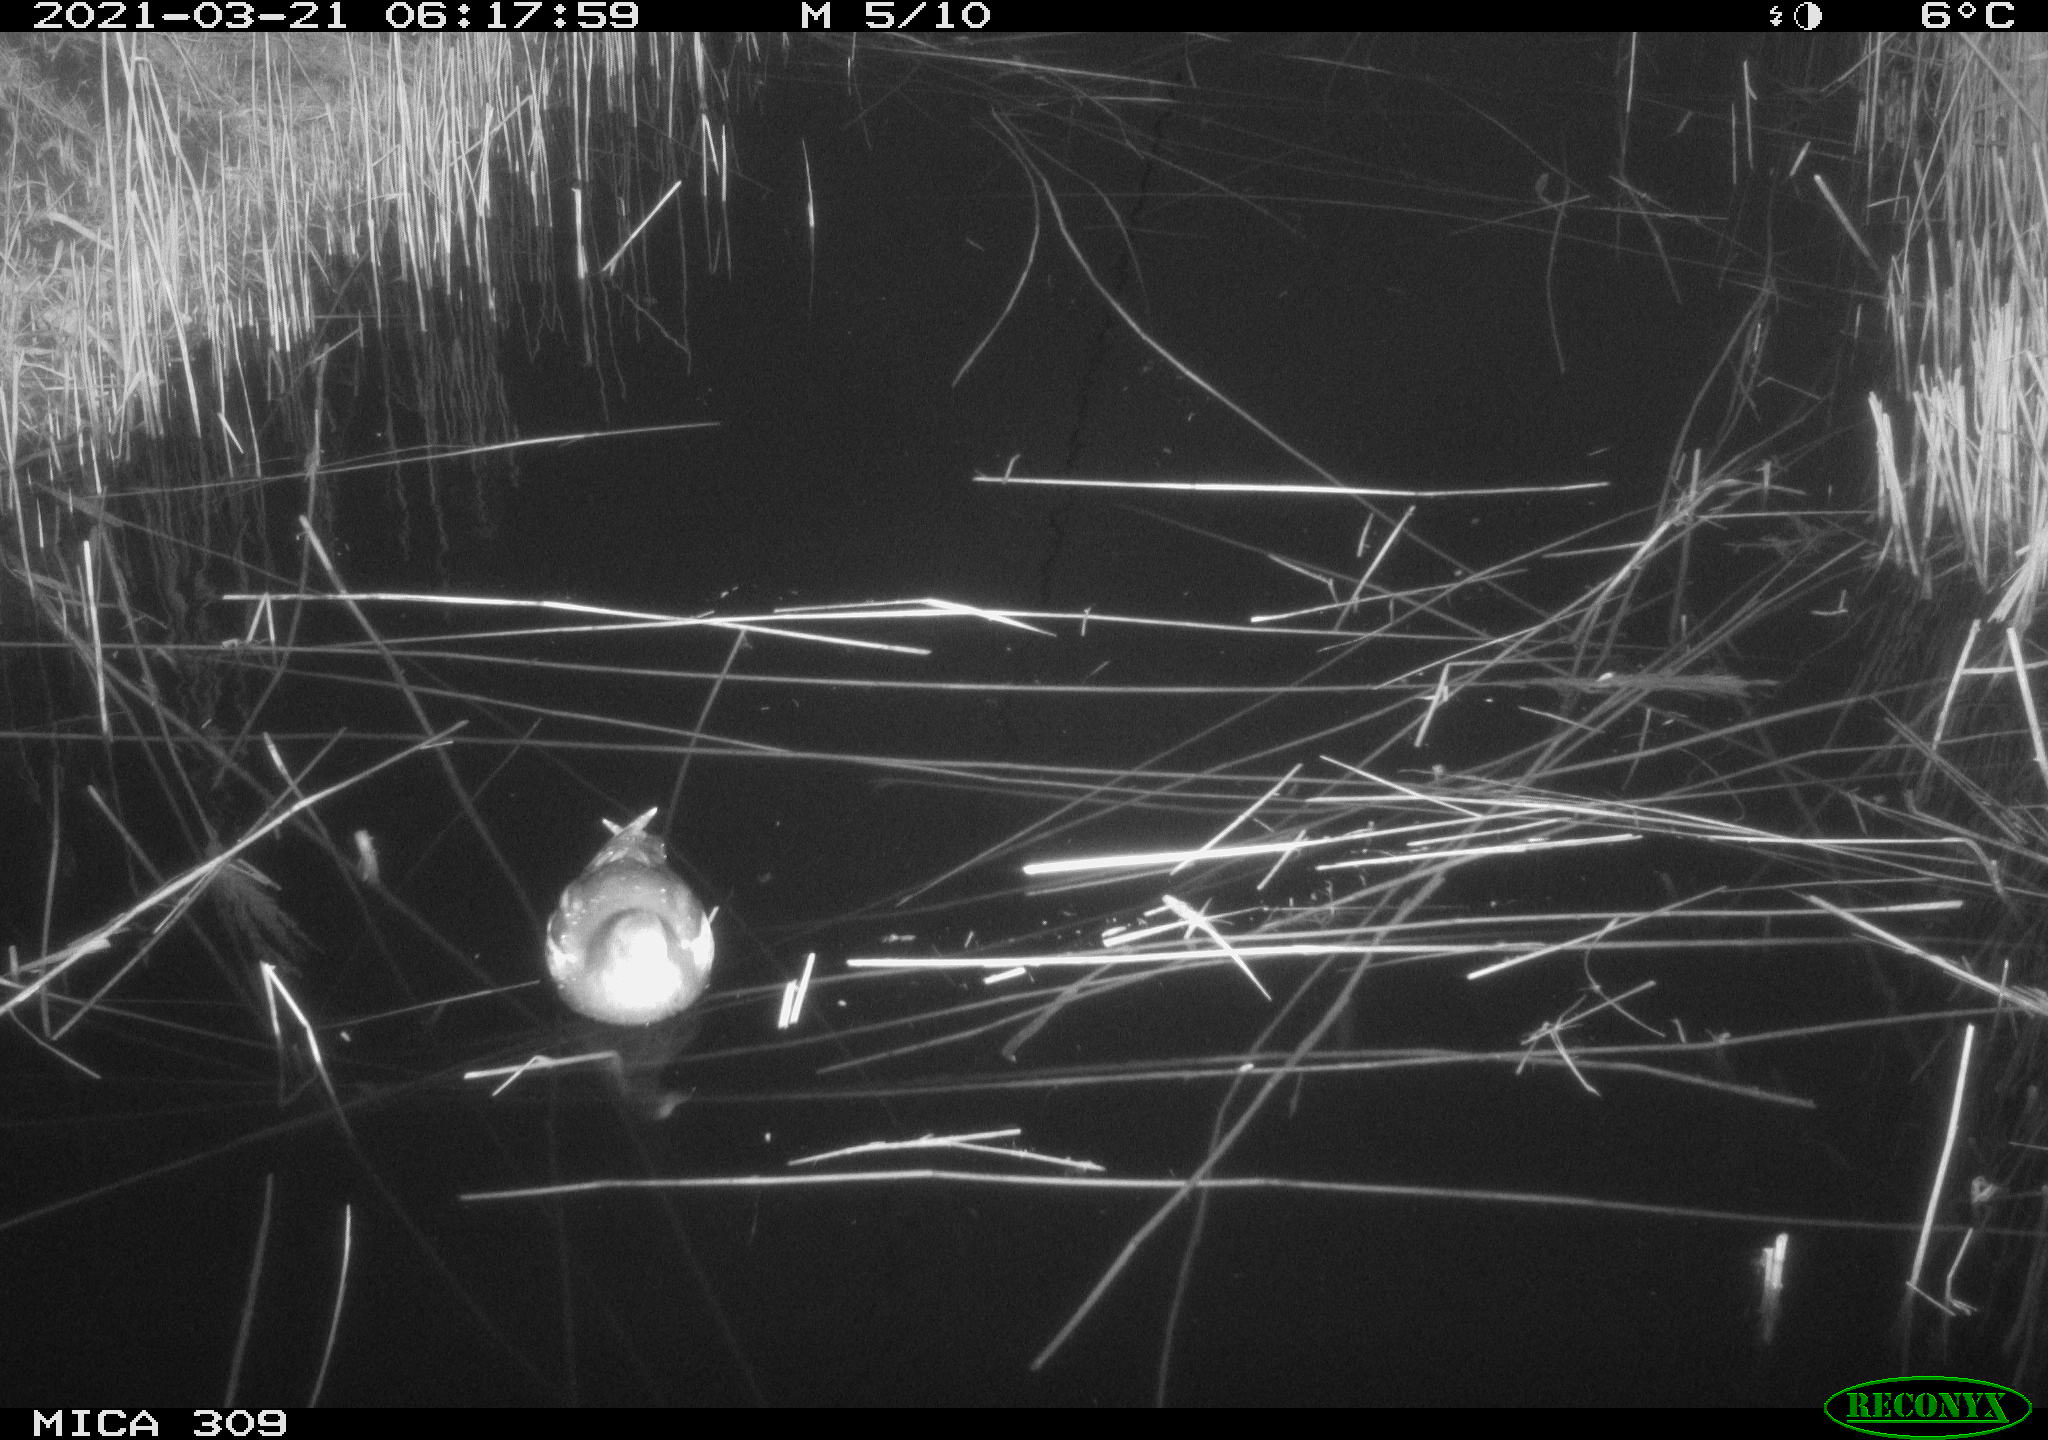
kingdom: Animalia
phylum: Chordata
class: Aves
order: Gruiformes
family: Rallidae
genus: Fulica
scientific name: Fulica atra
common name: Eurasian coot
